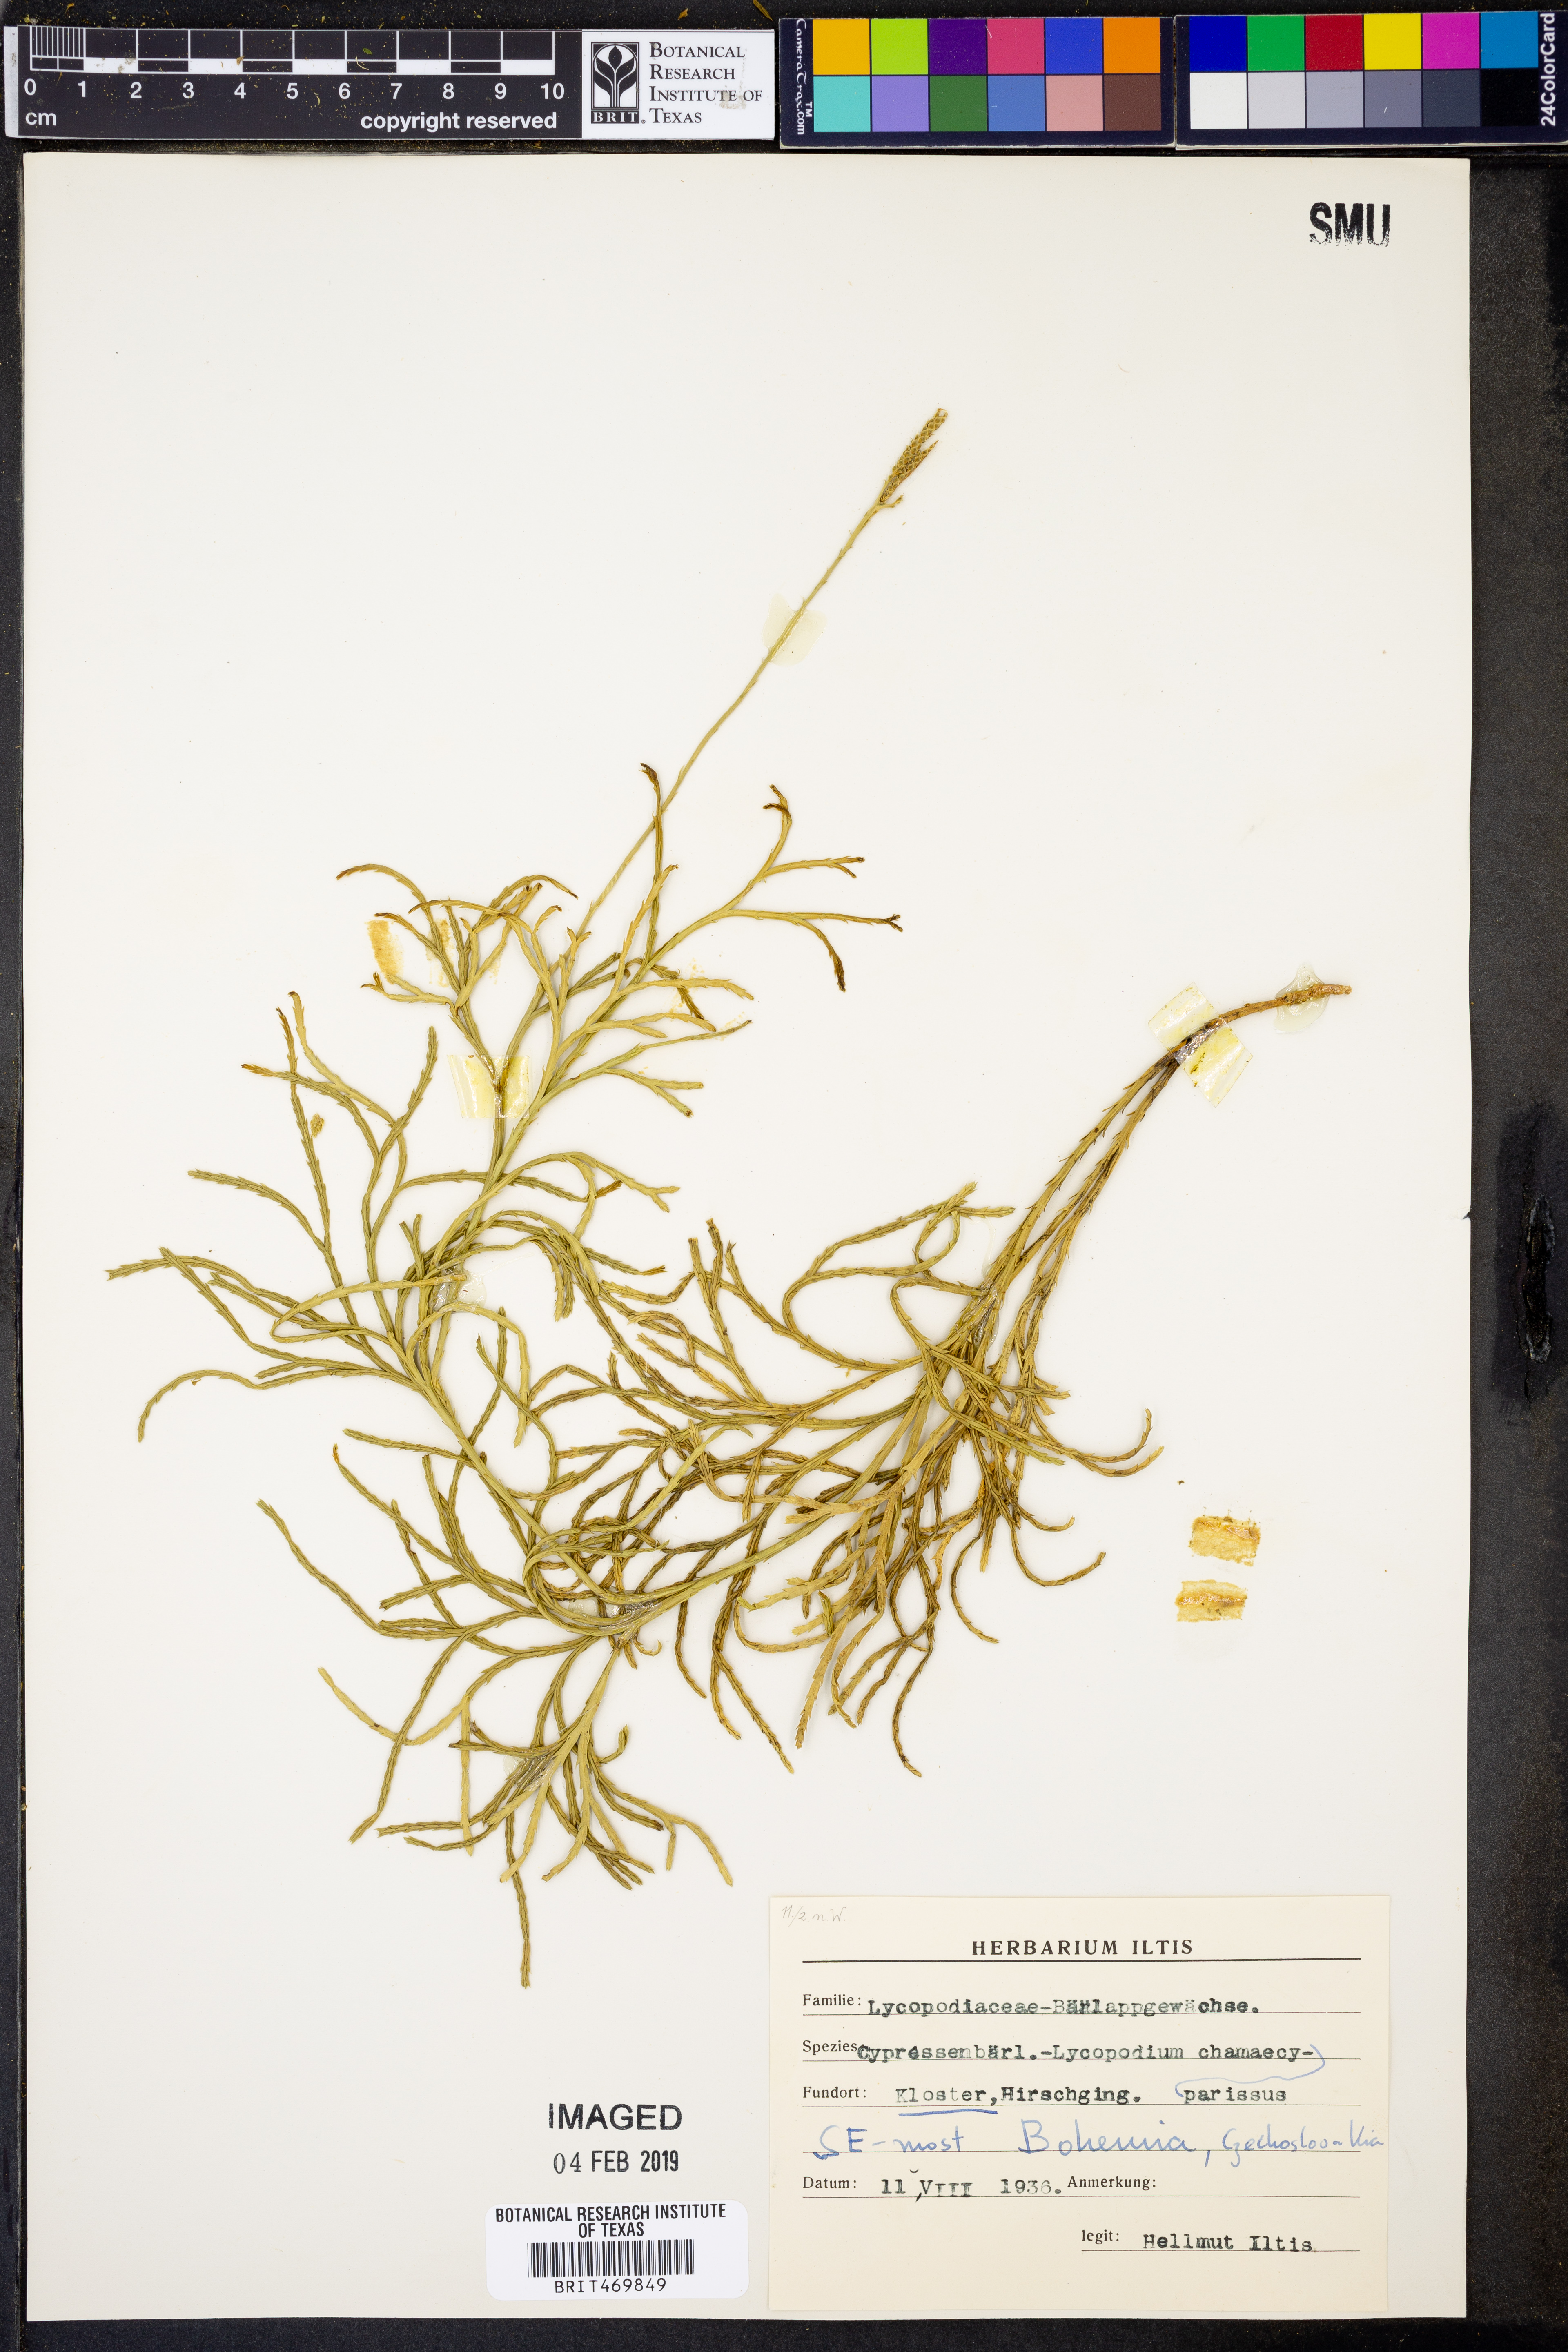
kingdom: Plantae
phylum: Tracheophyta
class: Lycopodiopsida
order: Lycopodiales
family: Lycopodiaceae
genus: Diphasiastrum
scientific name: Diphasiastrum tristachyum
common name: Blue ground-cedar
